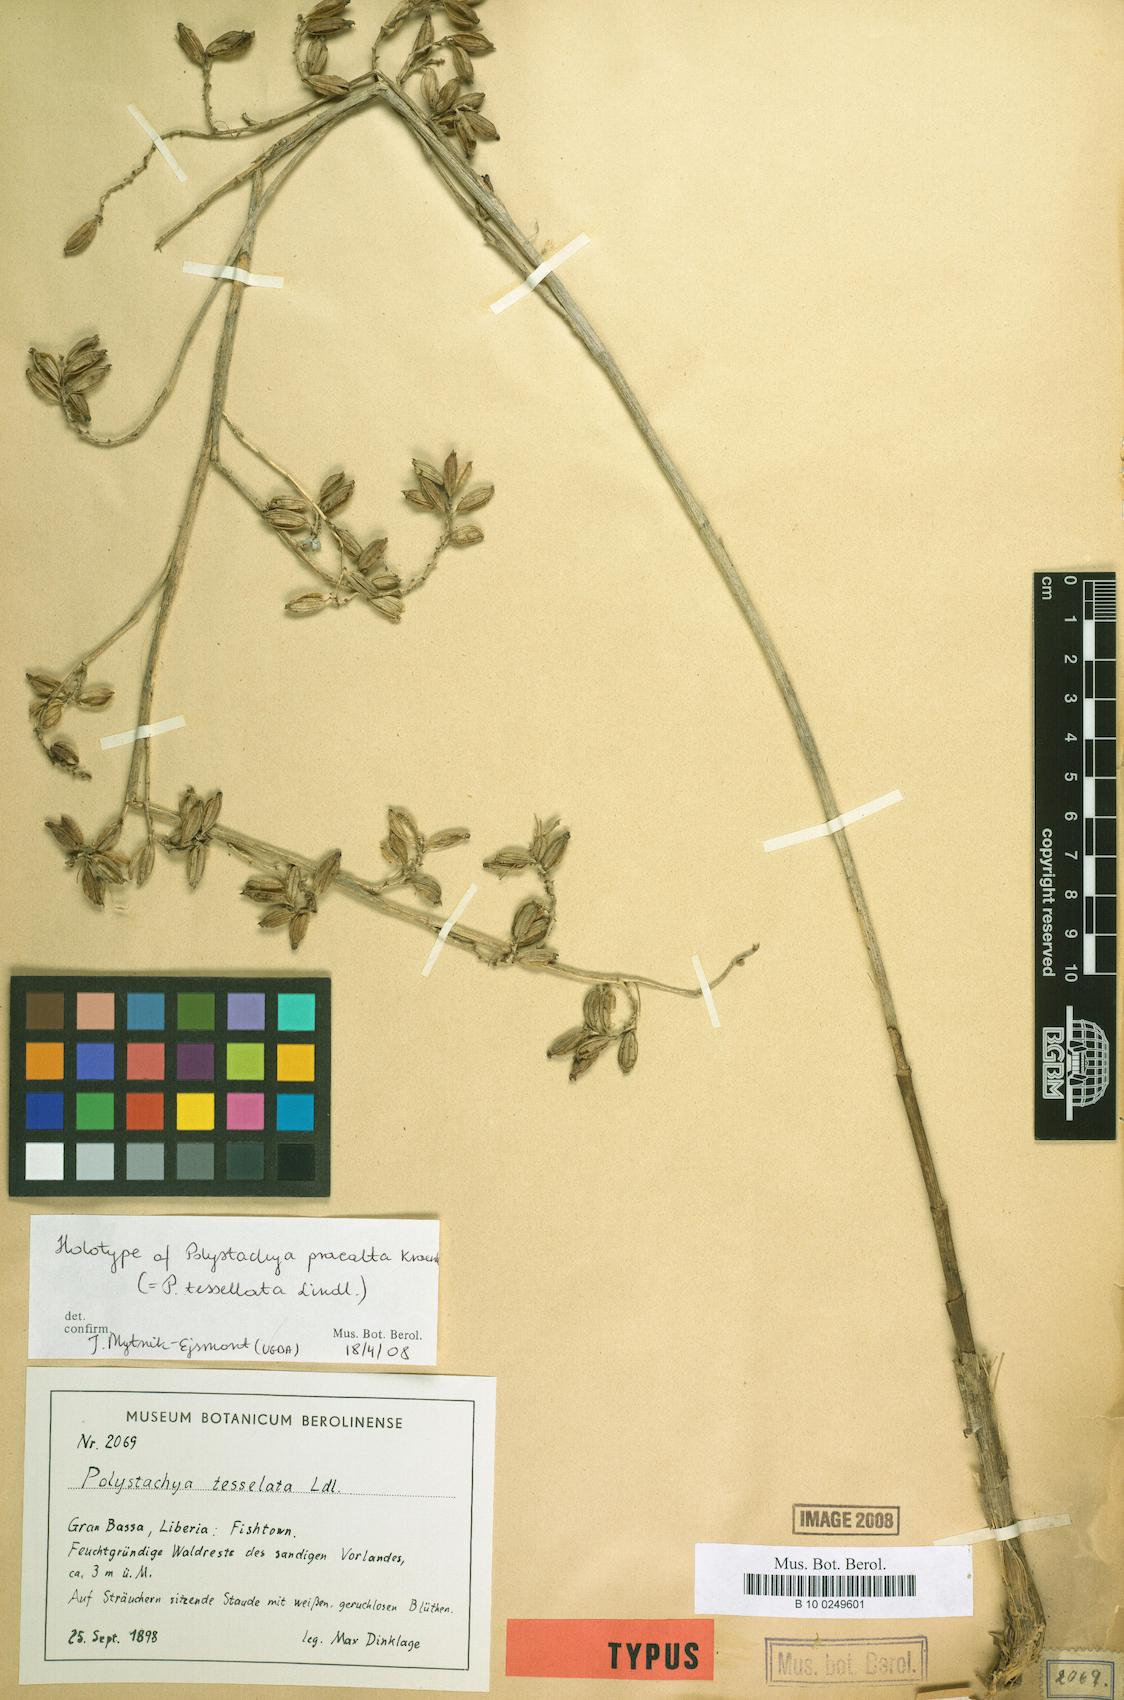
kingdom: Plantae
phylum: Tracheophyta
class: Liliopsida
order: Asparagales
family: Orchidaceae
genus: Polystachya
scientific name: Polystachya concreta
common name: Greater yellowspike orchid
